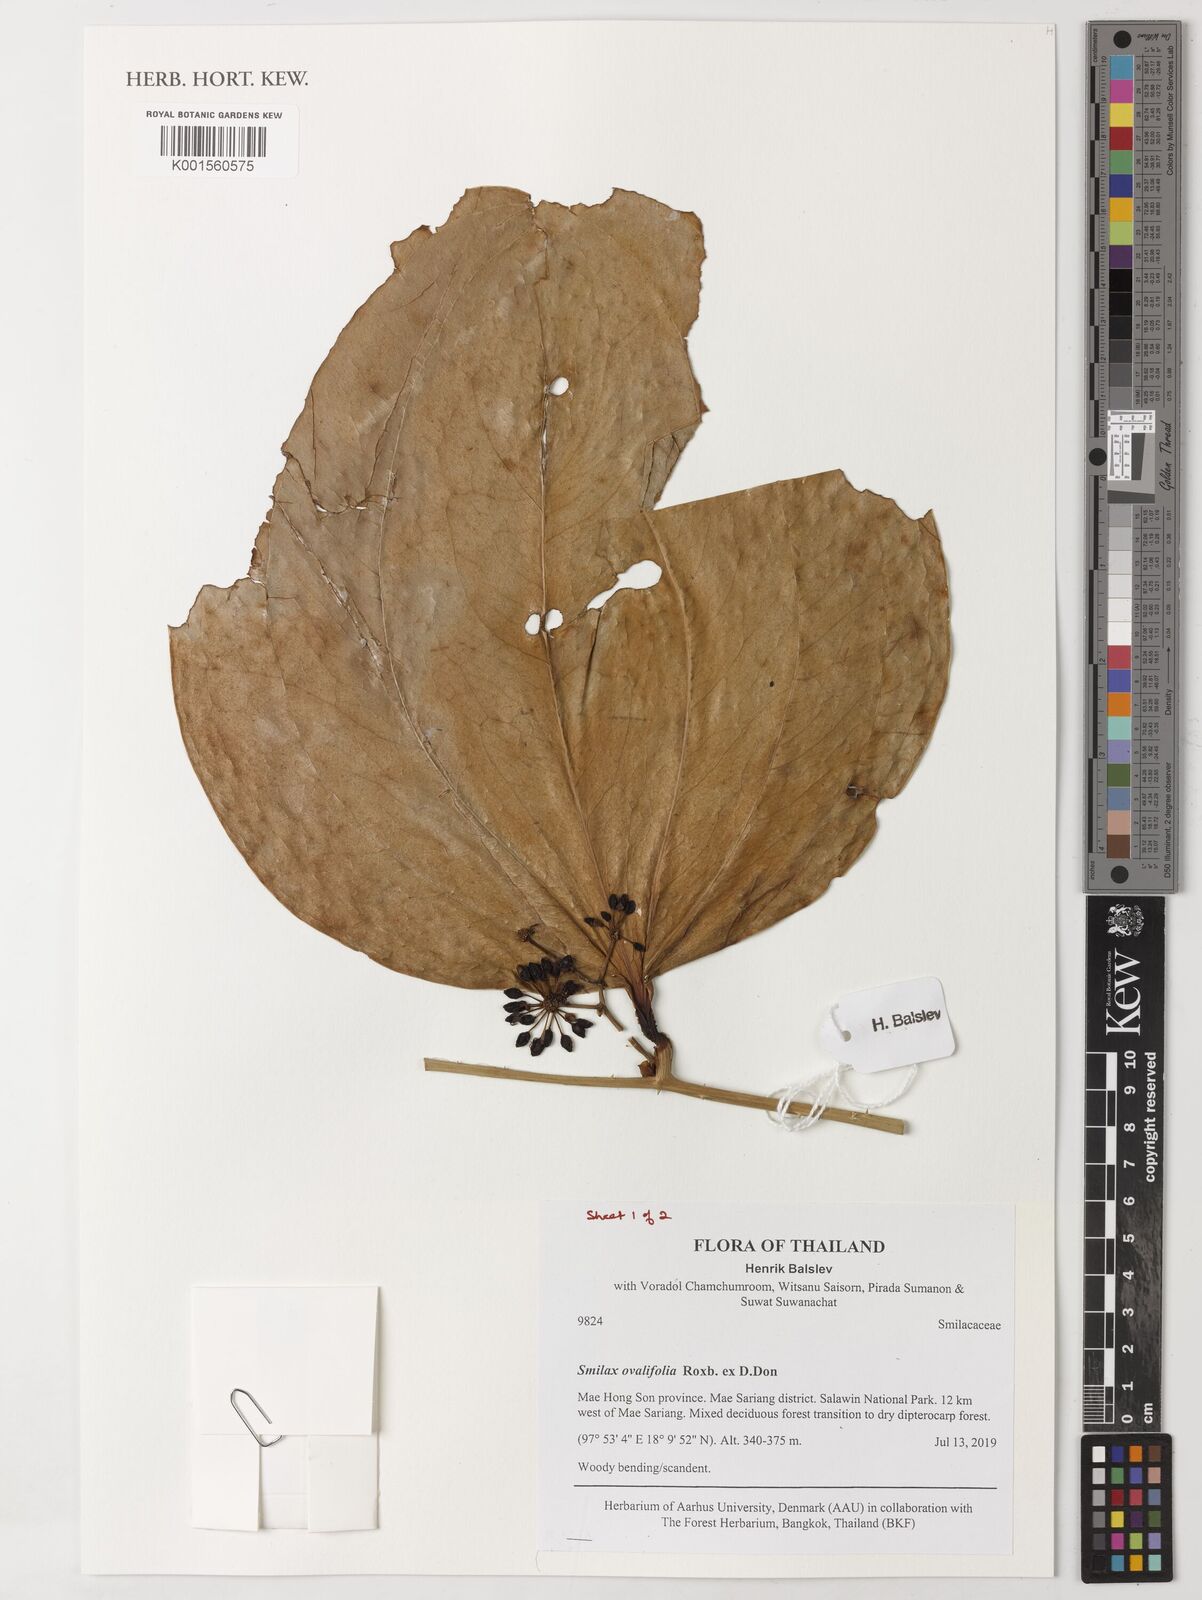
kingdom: Plantae
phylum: Tracheophyta
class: Liliopsida
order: Liliales
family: Smilacaceae
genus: Smilax
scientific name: Smilax ovalifolia
